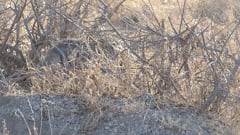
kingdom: Animalia
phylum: Chordata
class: Mammalia
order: Carnivora
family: Hyaenidae
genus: Hyaena
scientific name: Hyaena hyaena
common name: Striped hyaena
